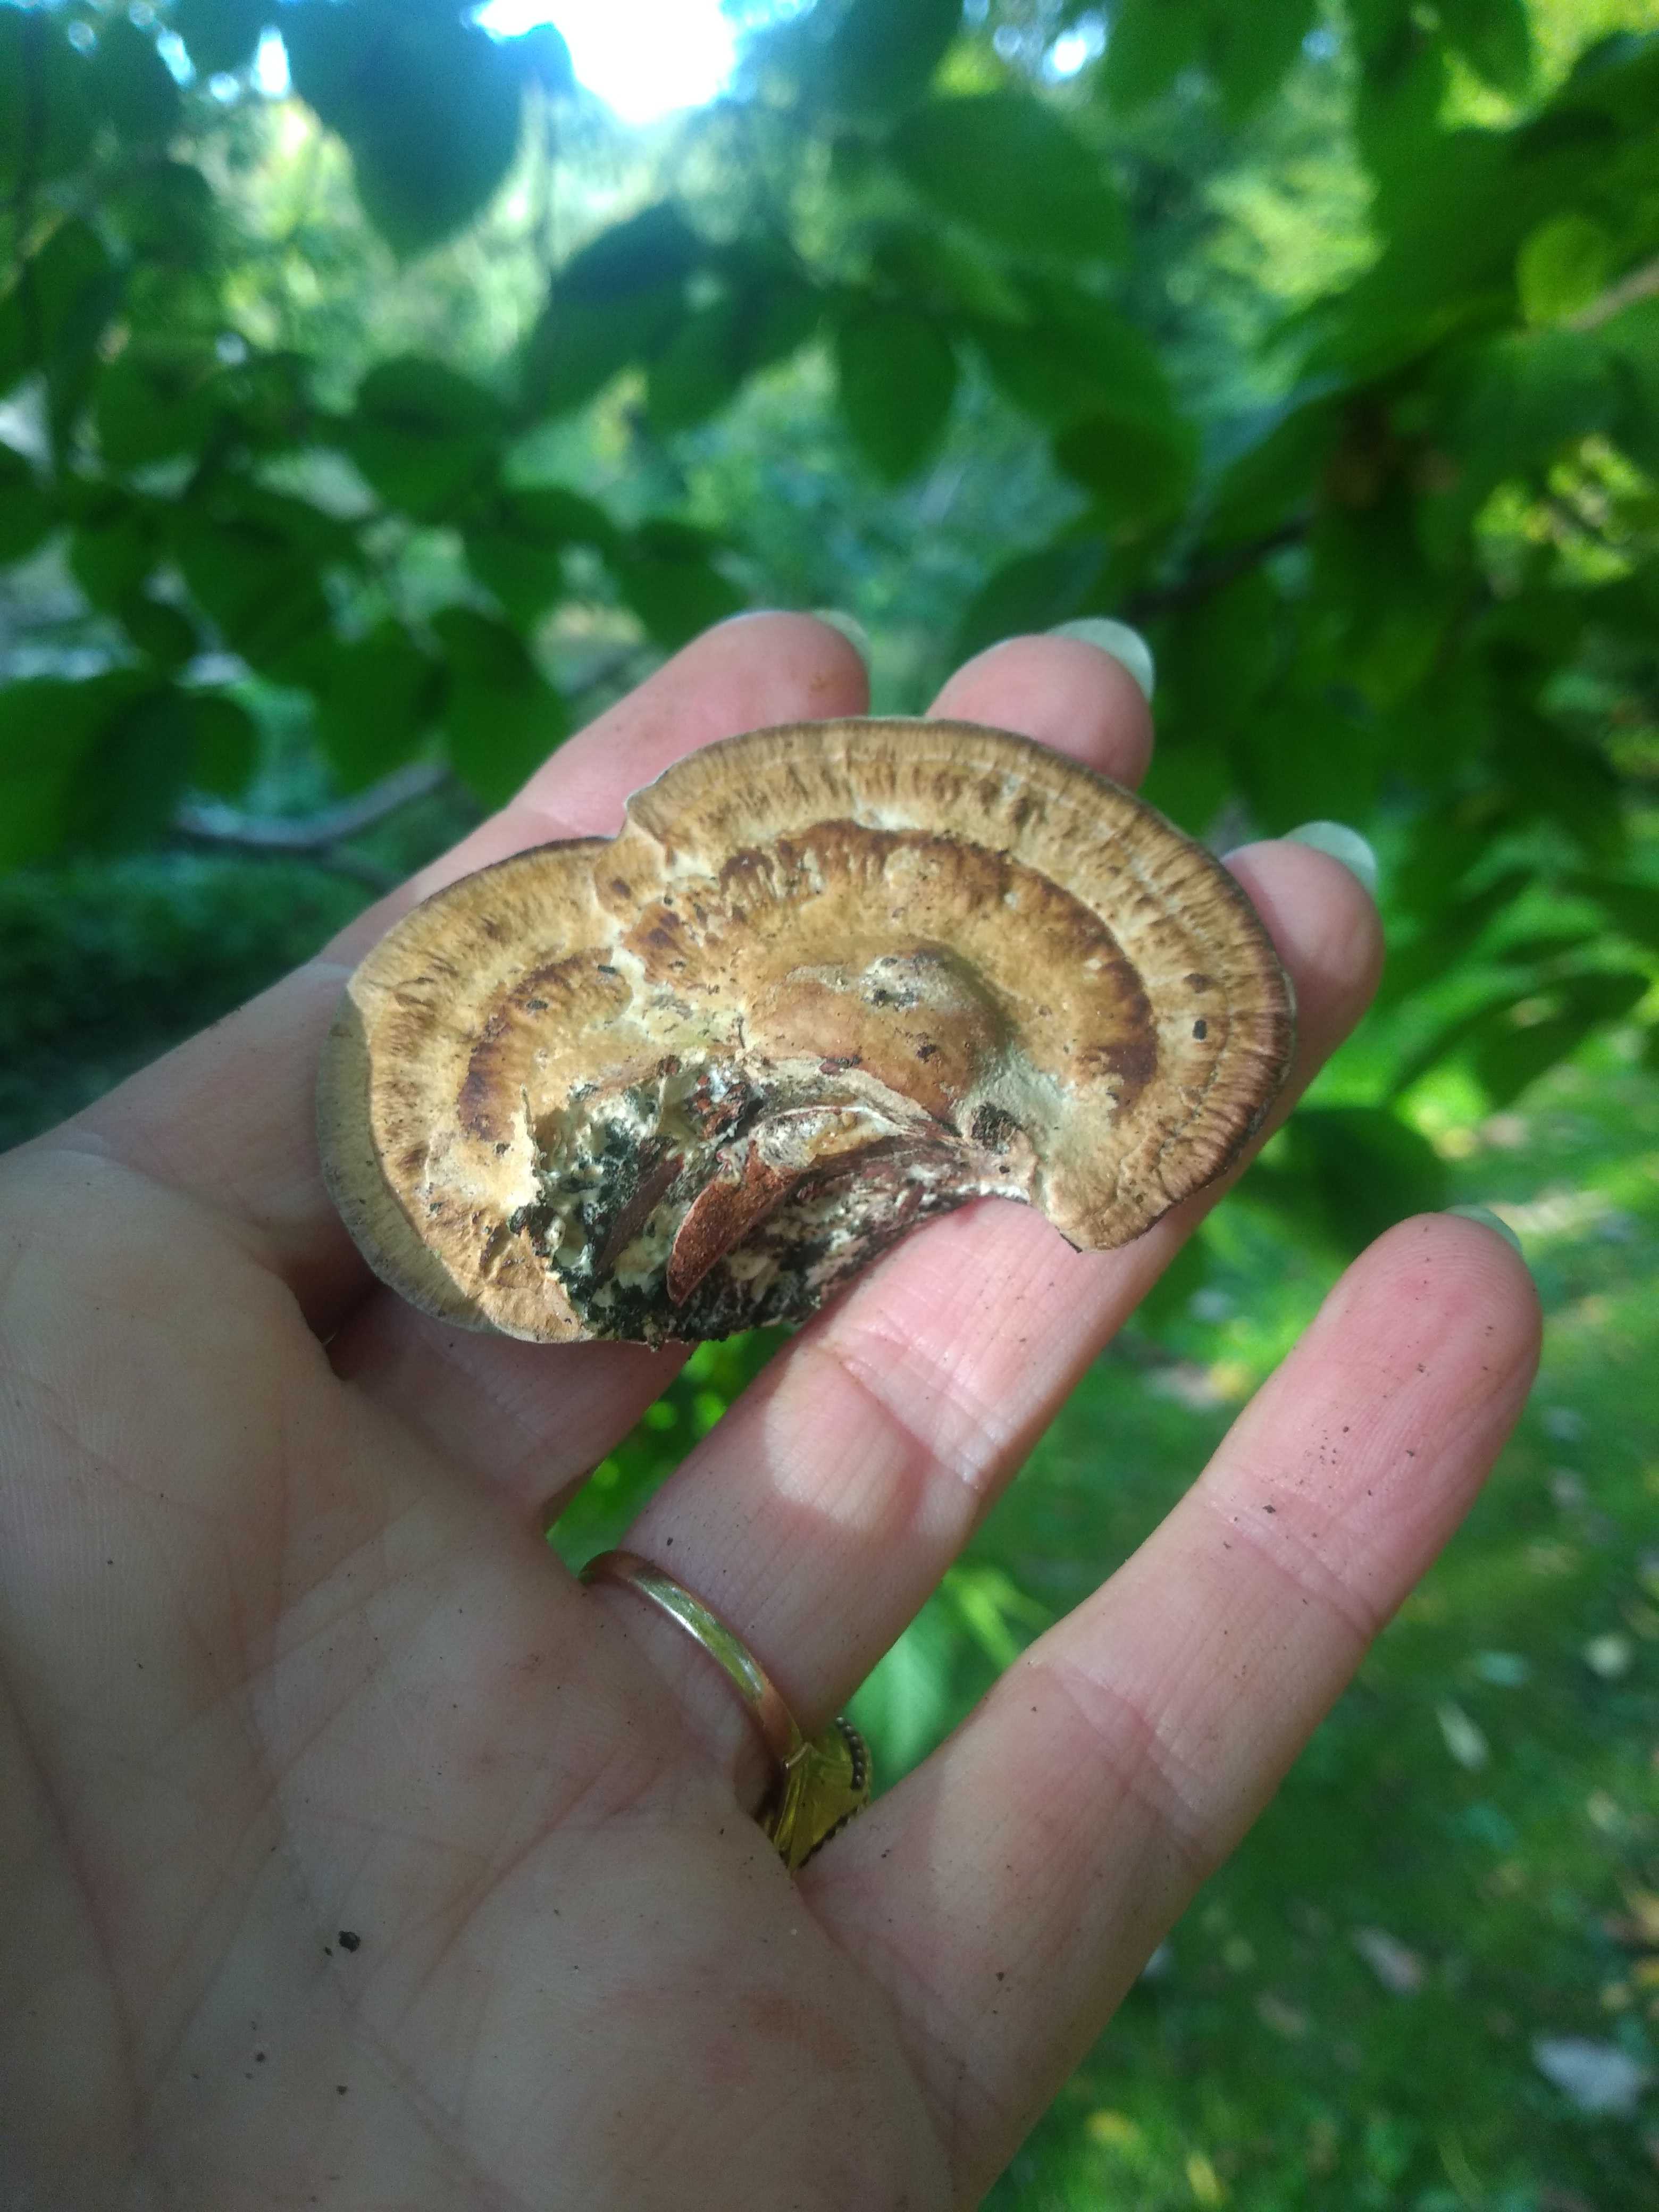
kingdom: Fungi
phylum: Basidiomycota
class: Agaricomycetes
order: Polyporales
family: Polyporaceae
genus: Daedaleopsis
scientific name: Daedaleopsis confragosa
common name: rødmende læderporesvamp
